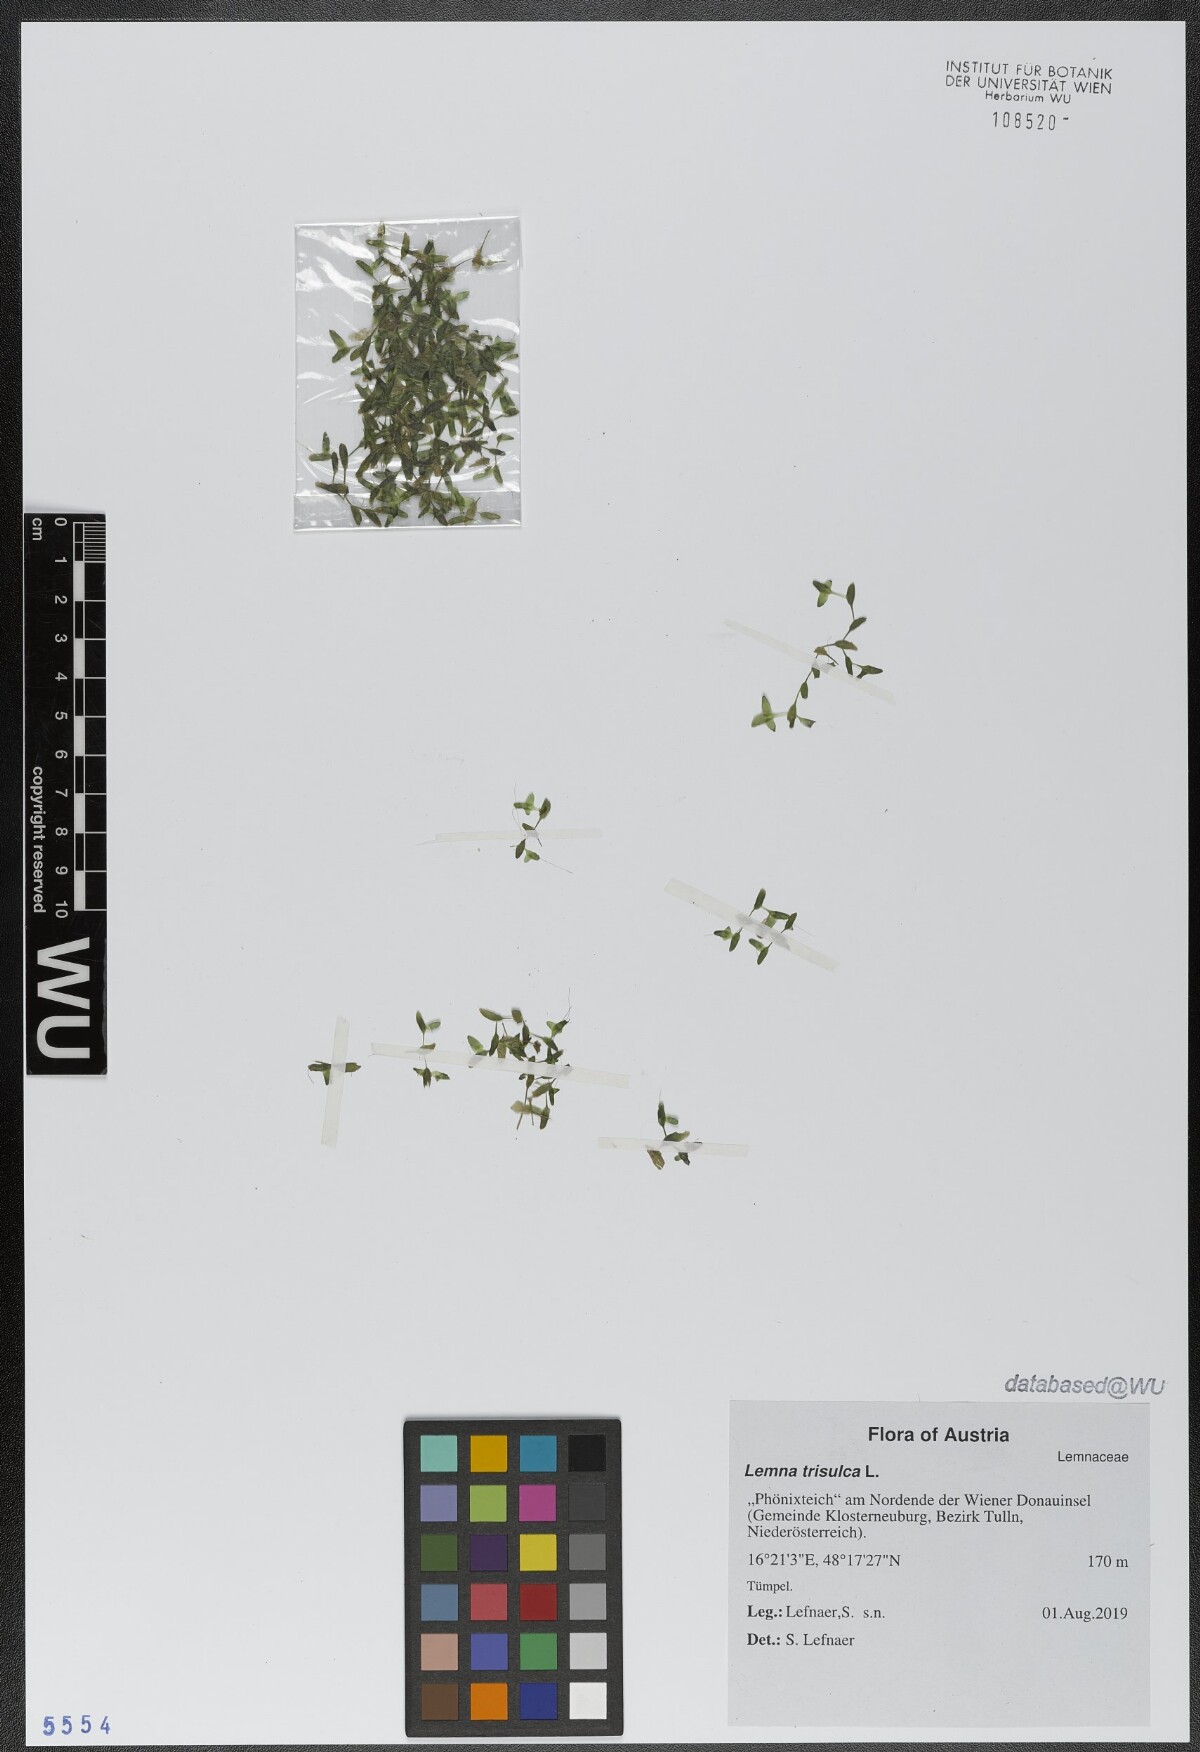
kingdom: Plantae
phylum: Tracheophyta
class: Liliopsida
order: Alismatales
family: Araceae
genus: Lemna
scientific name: Lemna trisulca
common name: Ivy-leaved duckweed
